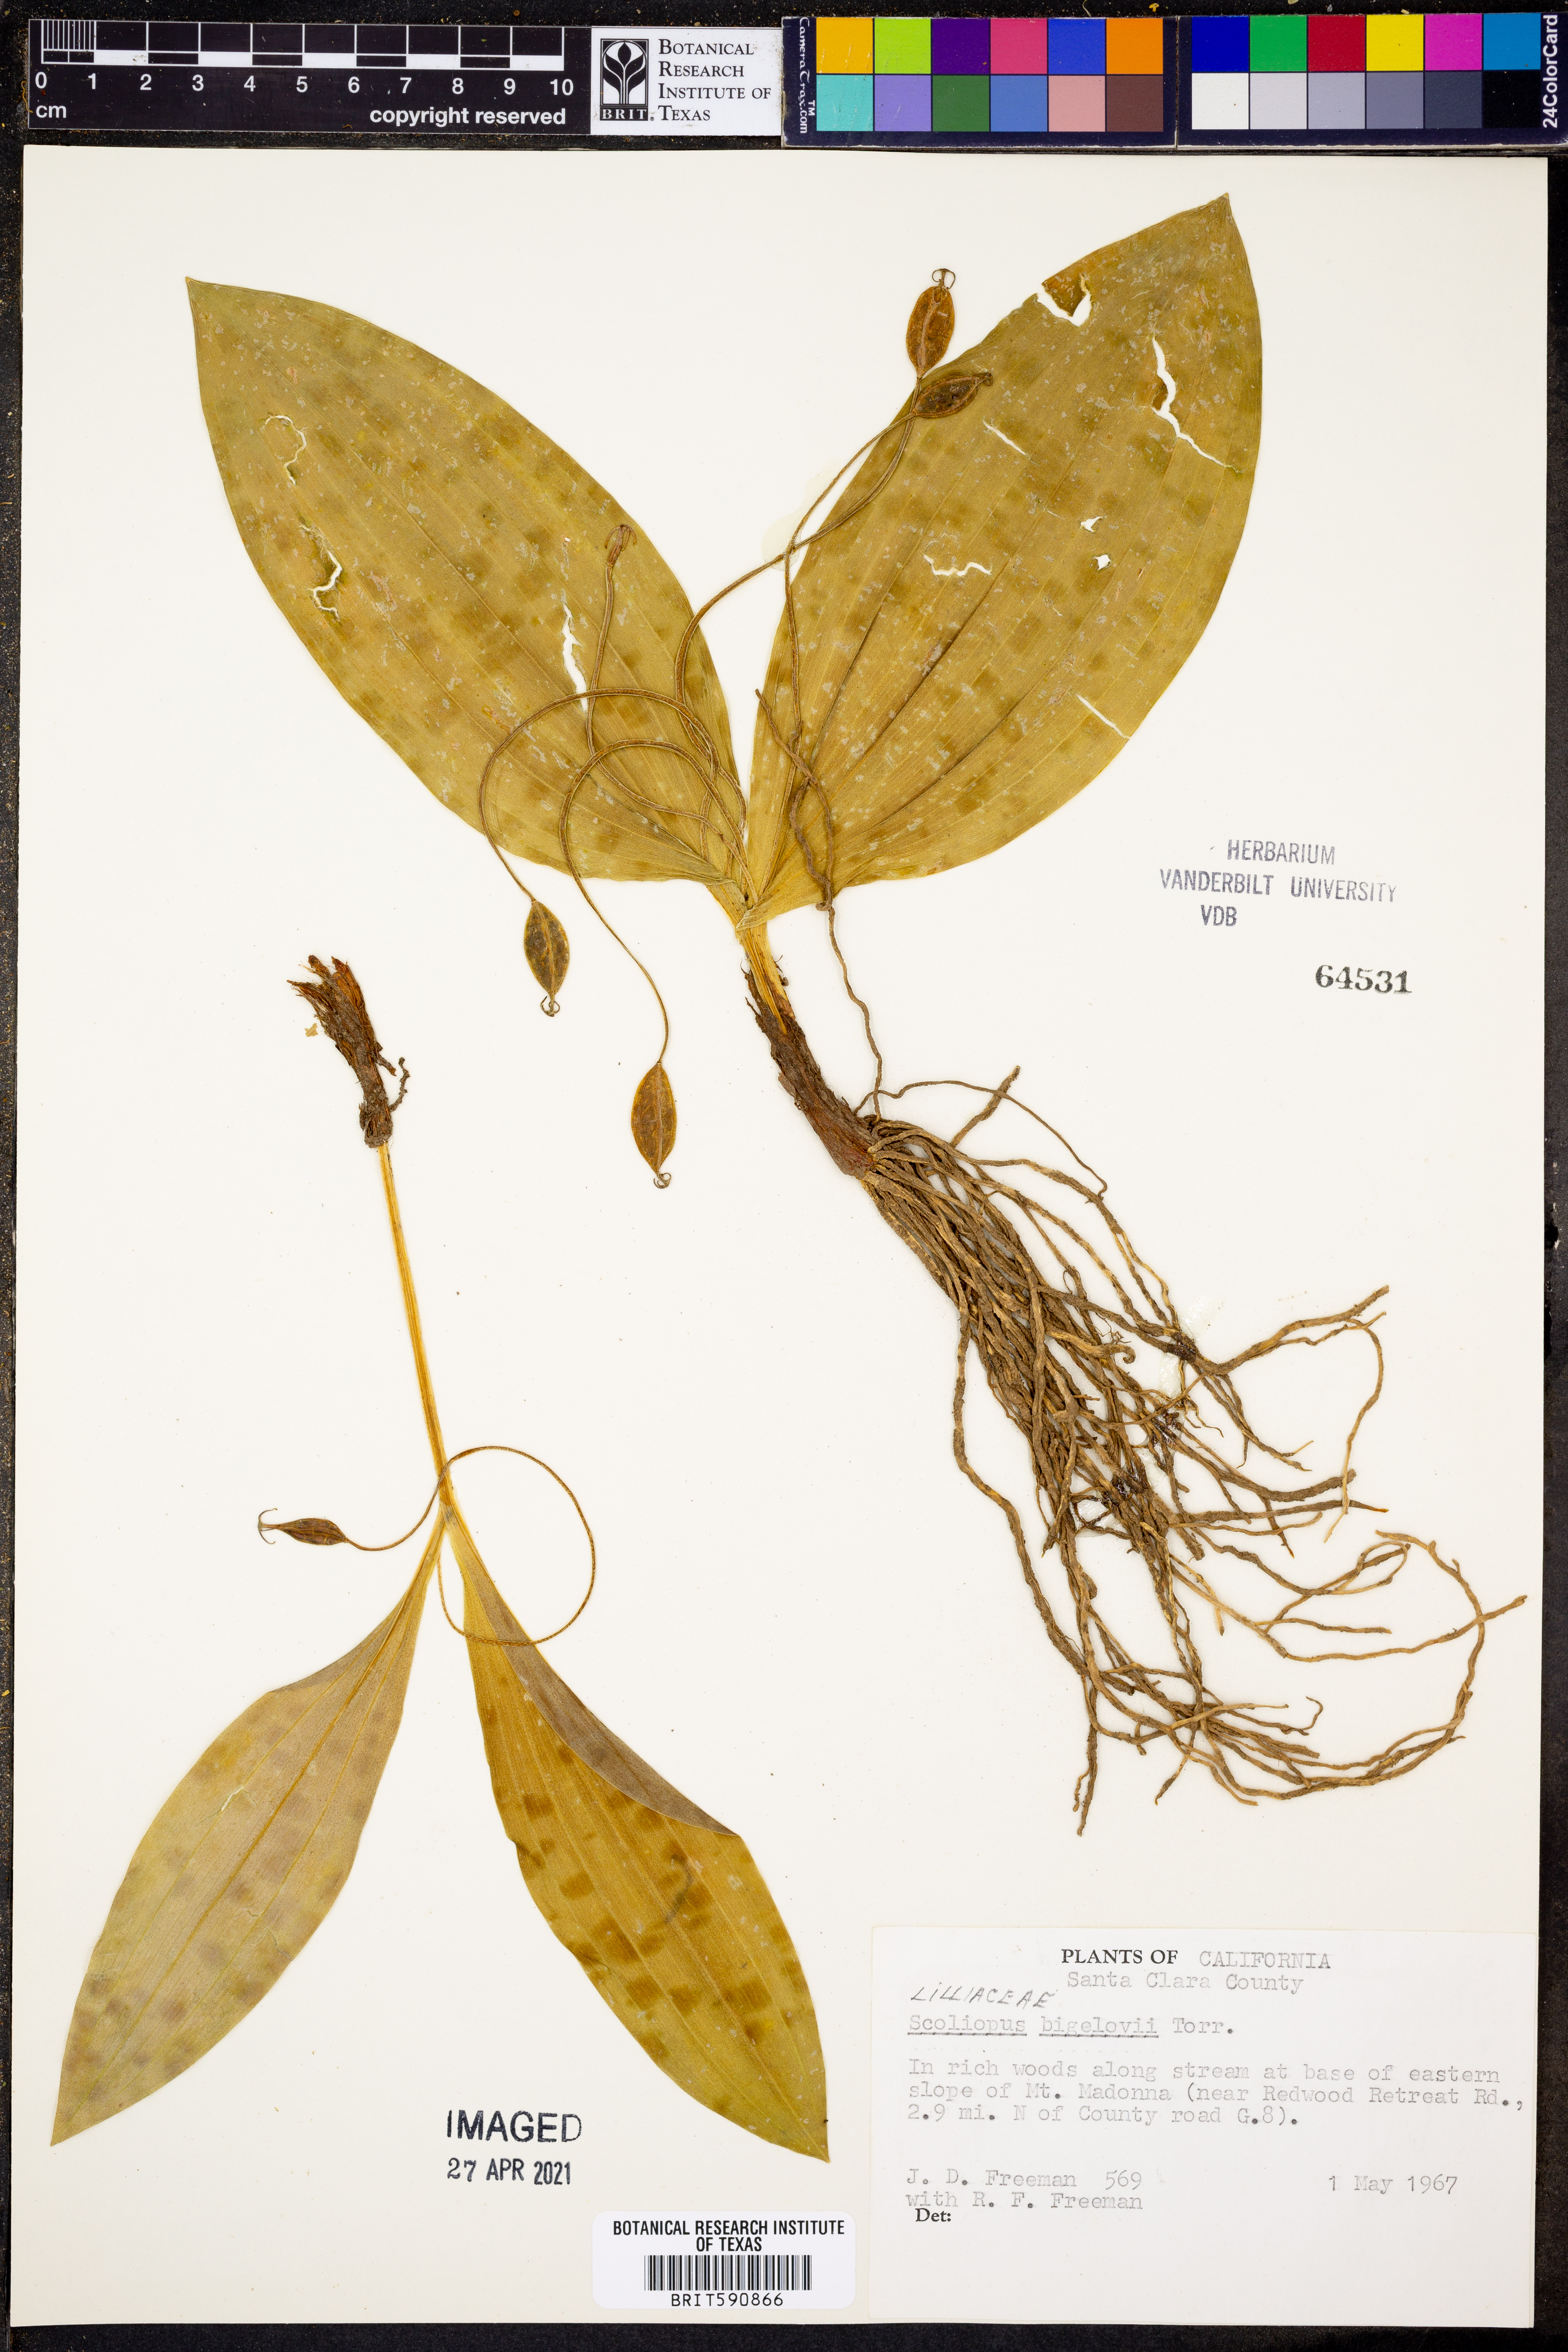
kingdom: Plantae
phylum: Tracheophyta
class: Liliopsida
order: Liliales
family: Liliaceae
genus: Scoliopus
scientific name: Scoliopus bigelovii
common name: Foetid adder's-tongue
